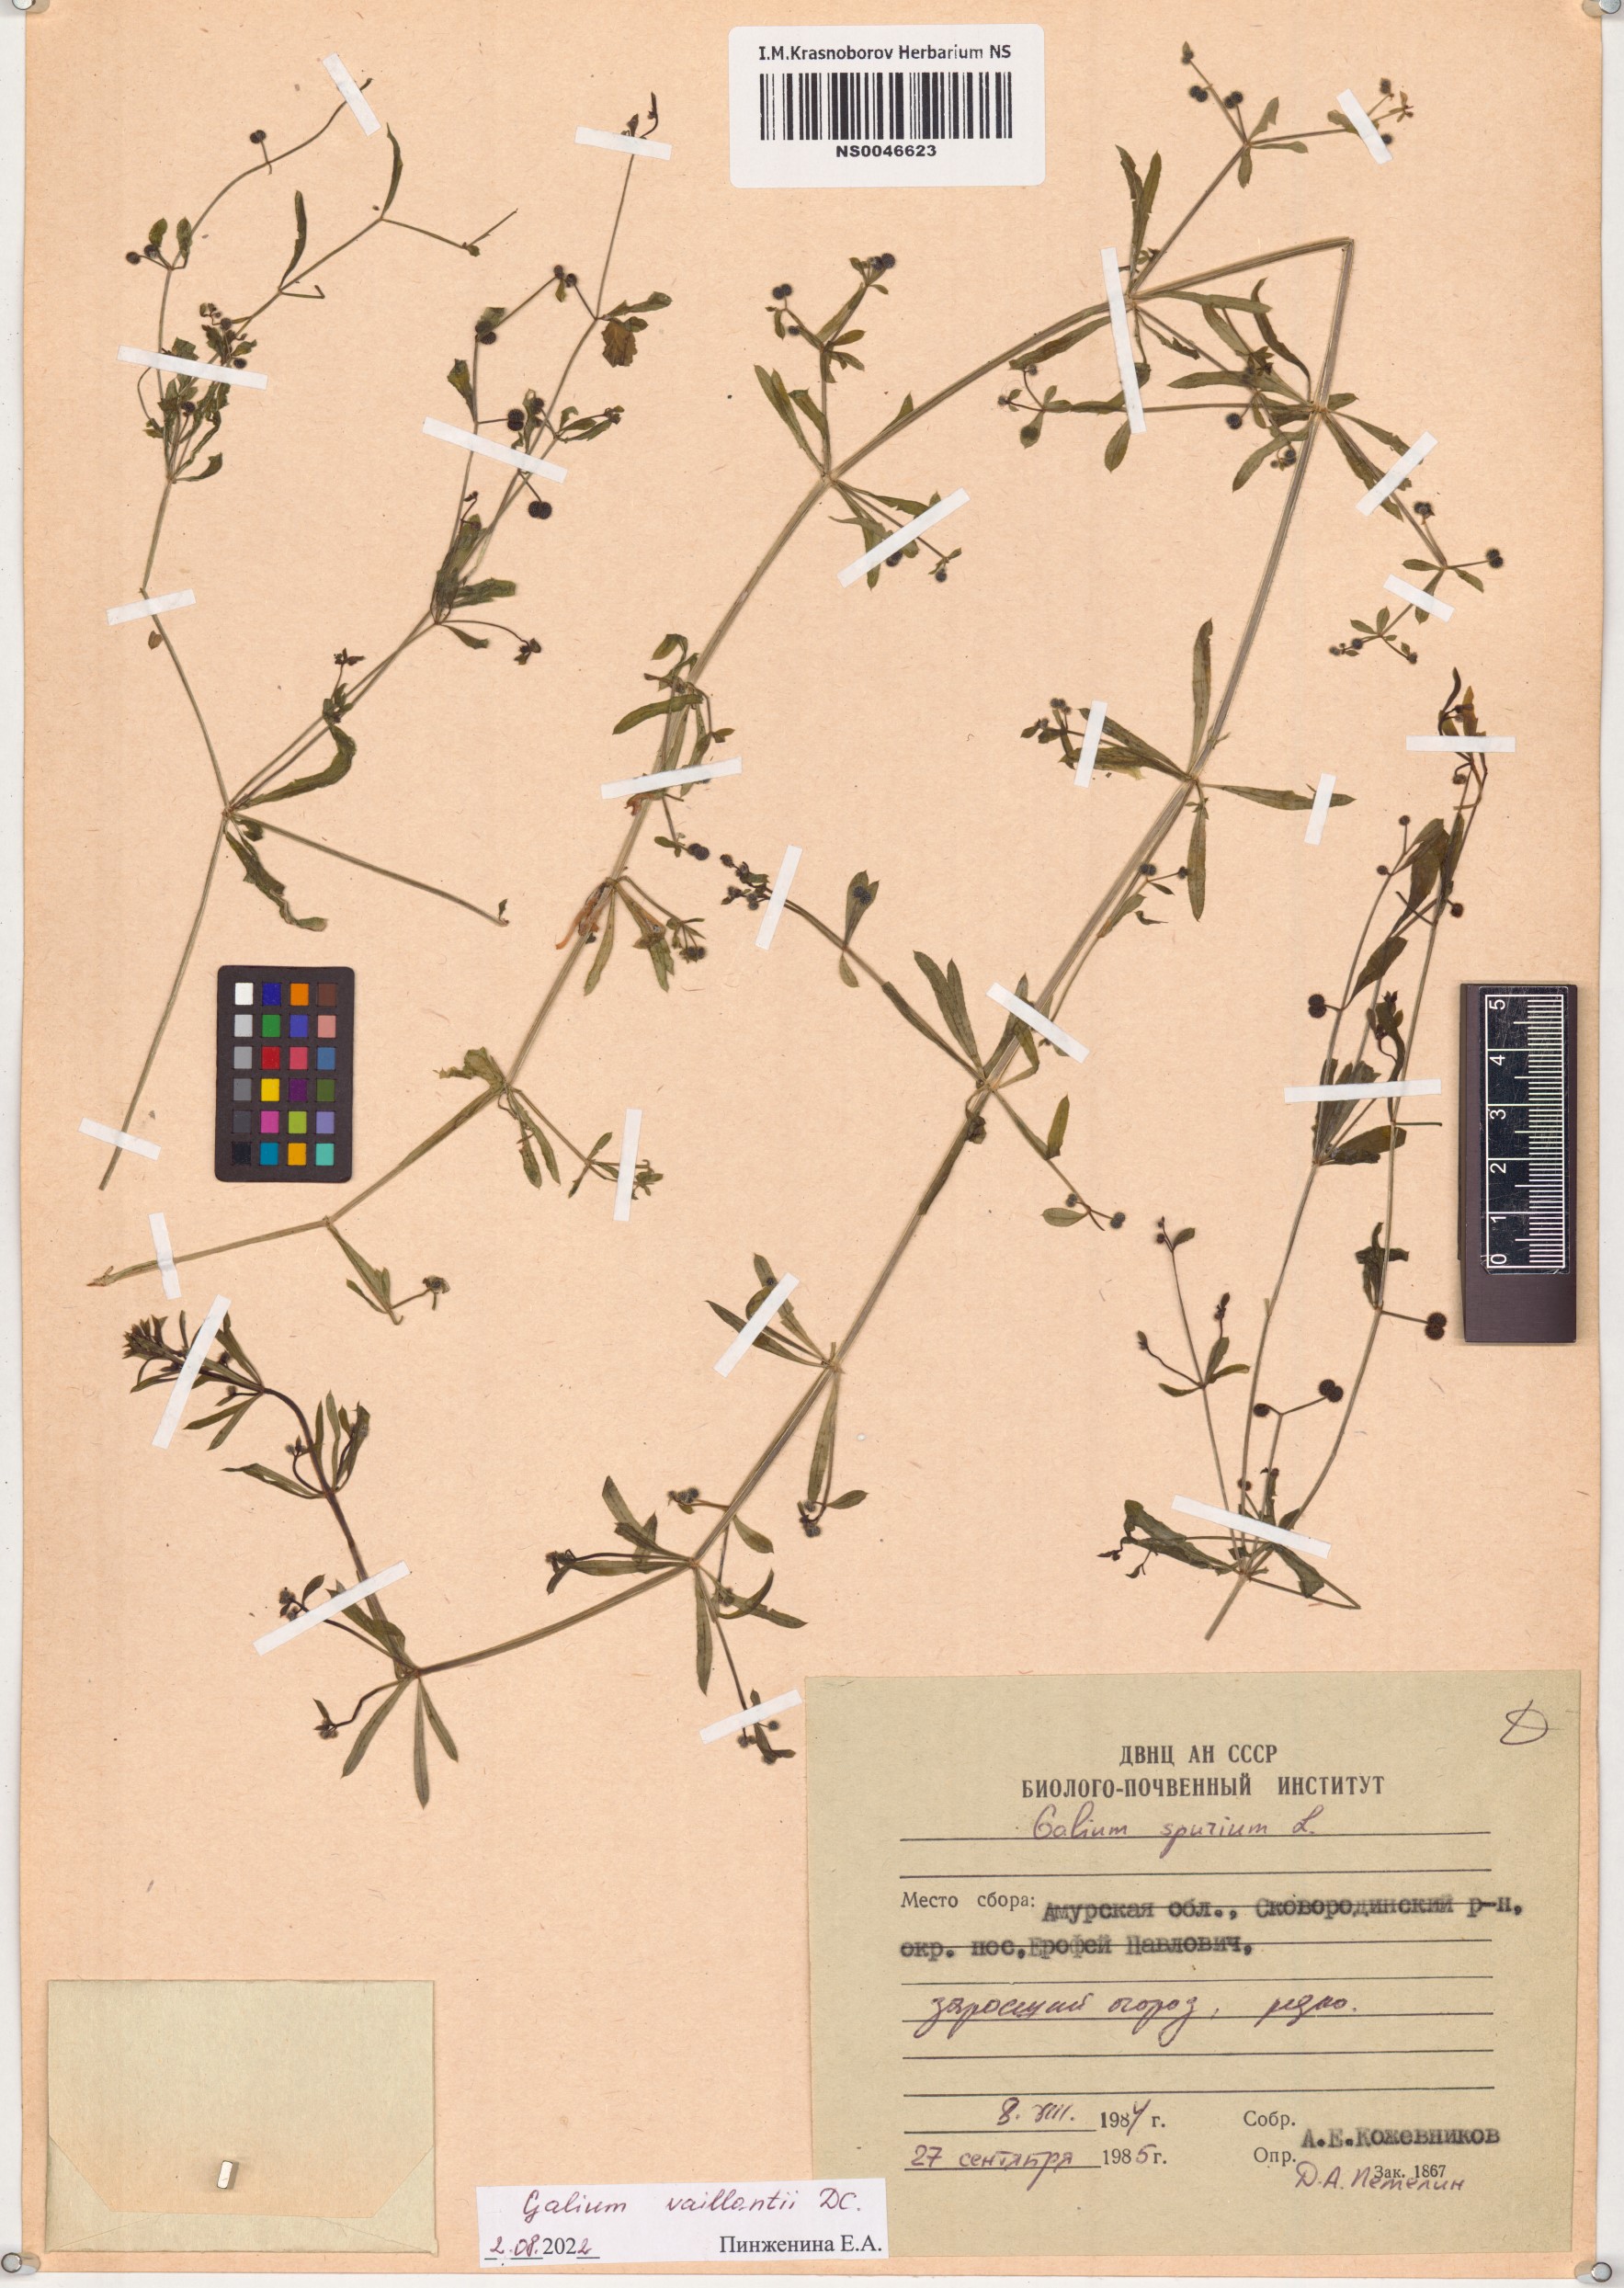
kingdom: Plantae
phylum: Tracheophyta
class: Magnoliopsida
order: Gentianales
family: Rubiaceae
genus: Galium
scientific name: Galium spurium
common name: False cleavers
